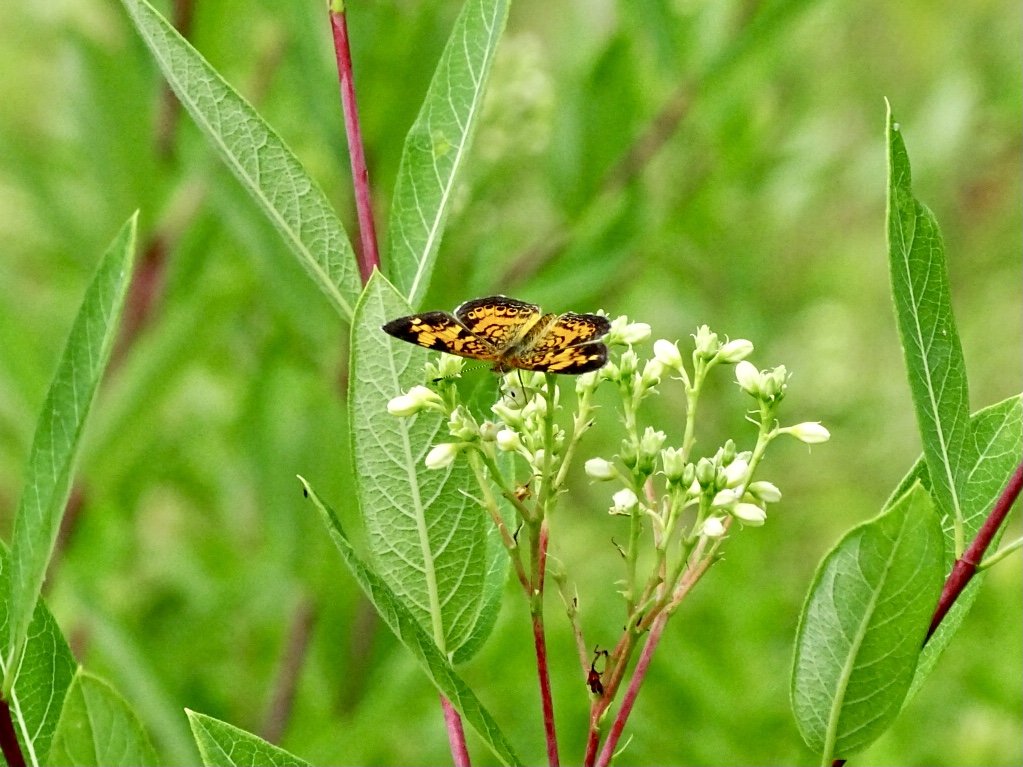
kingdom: Animalia
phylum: Arthropoda
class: Insecta
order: Lepidoptera
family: Nymphalidae
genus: Phyciodes
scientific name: Phyciodes tharos
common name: Pearl Crescent
